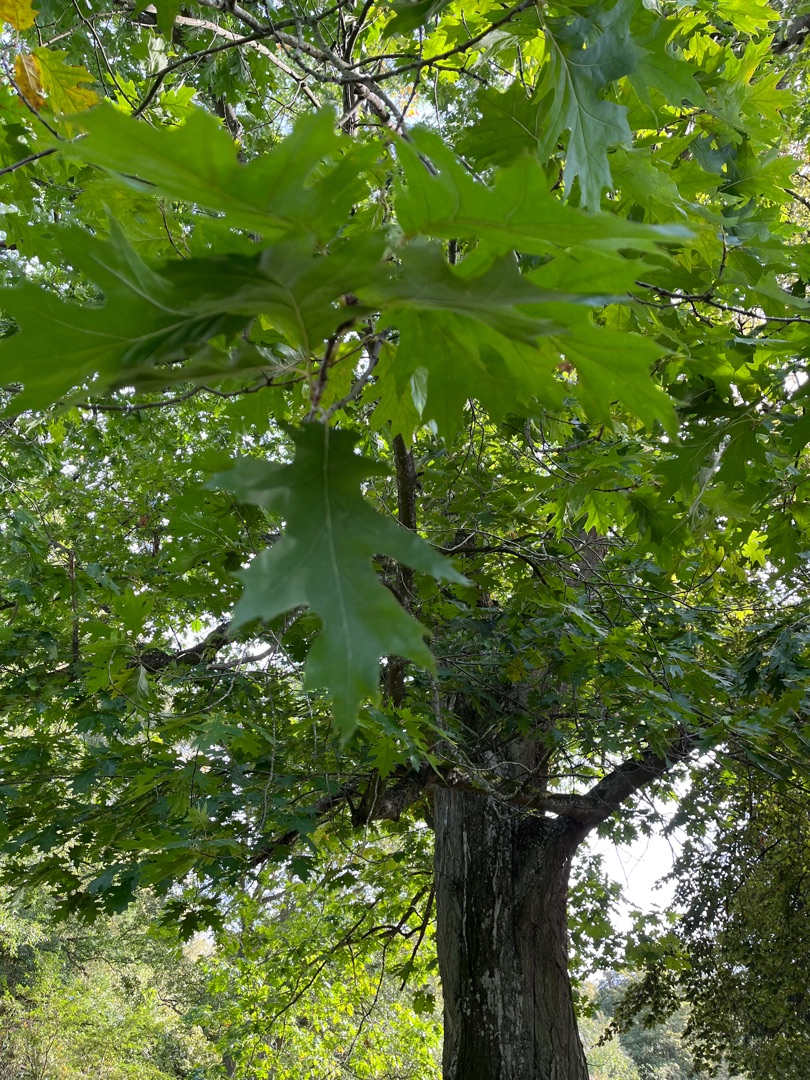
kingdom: Plantae
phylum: Tracheophyta
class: Magnoliopsida
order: Fagales
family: Fagaceae
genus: Quercus
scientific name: Quercus rubra
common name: Rød-eg
